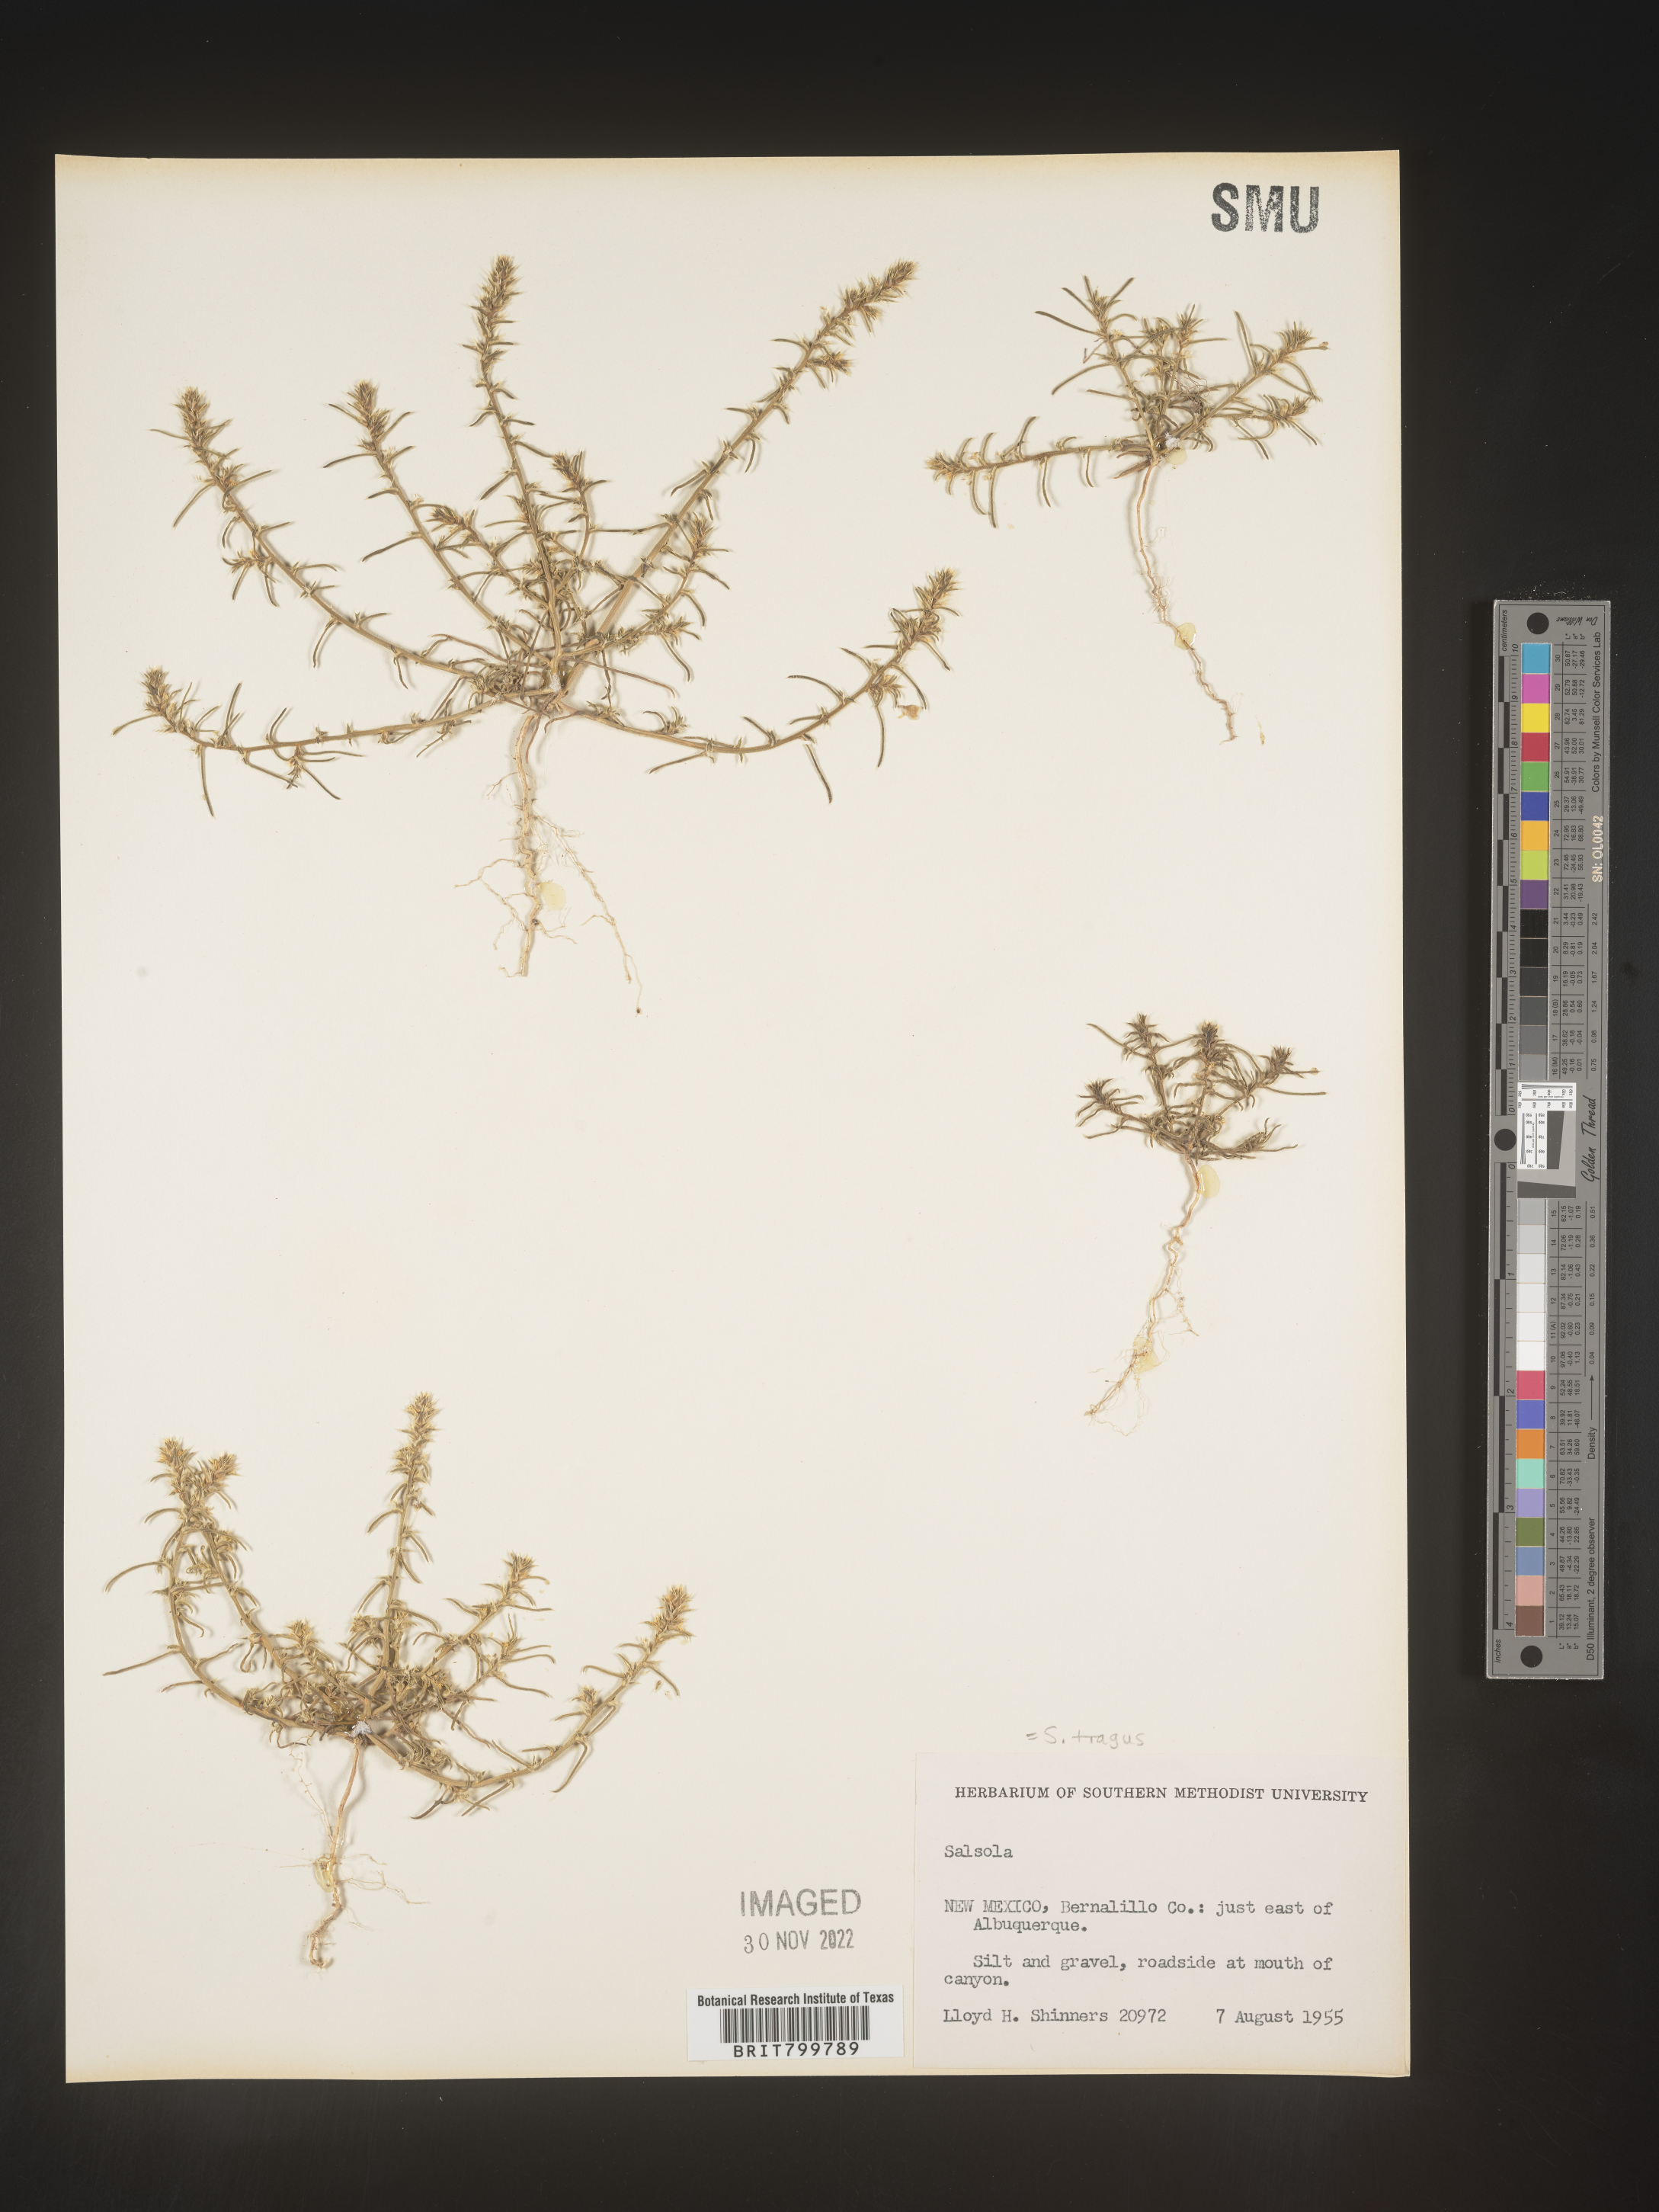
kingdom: Plantae
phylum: Tracheophyta
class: Magnoliopsida
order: Caryophyllales
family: Amaranthaceae
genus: Salsola
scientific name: Salsola tragus
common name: Prickly russian thistle
